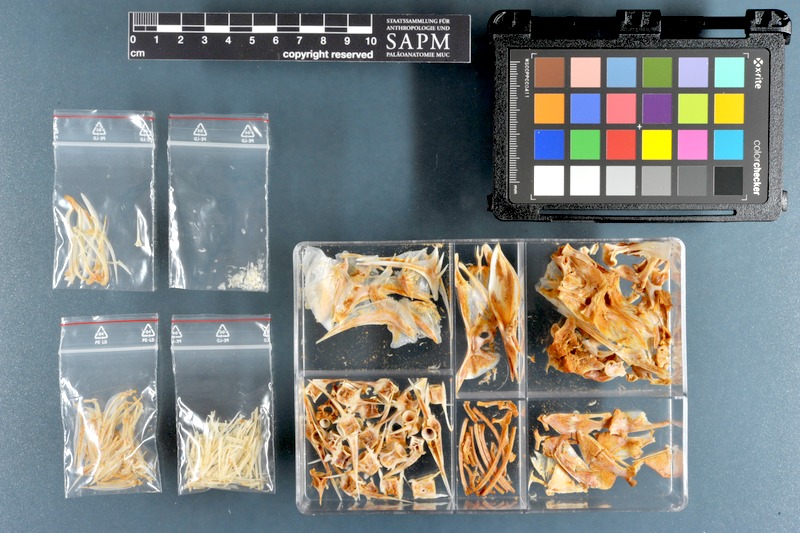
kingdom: Animalia
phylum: Chordata
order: Perciformes
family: Carangidae
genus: Carangoides
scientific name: Carangoides bartholomaei
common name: Yellow jack
